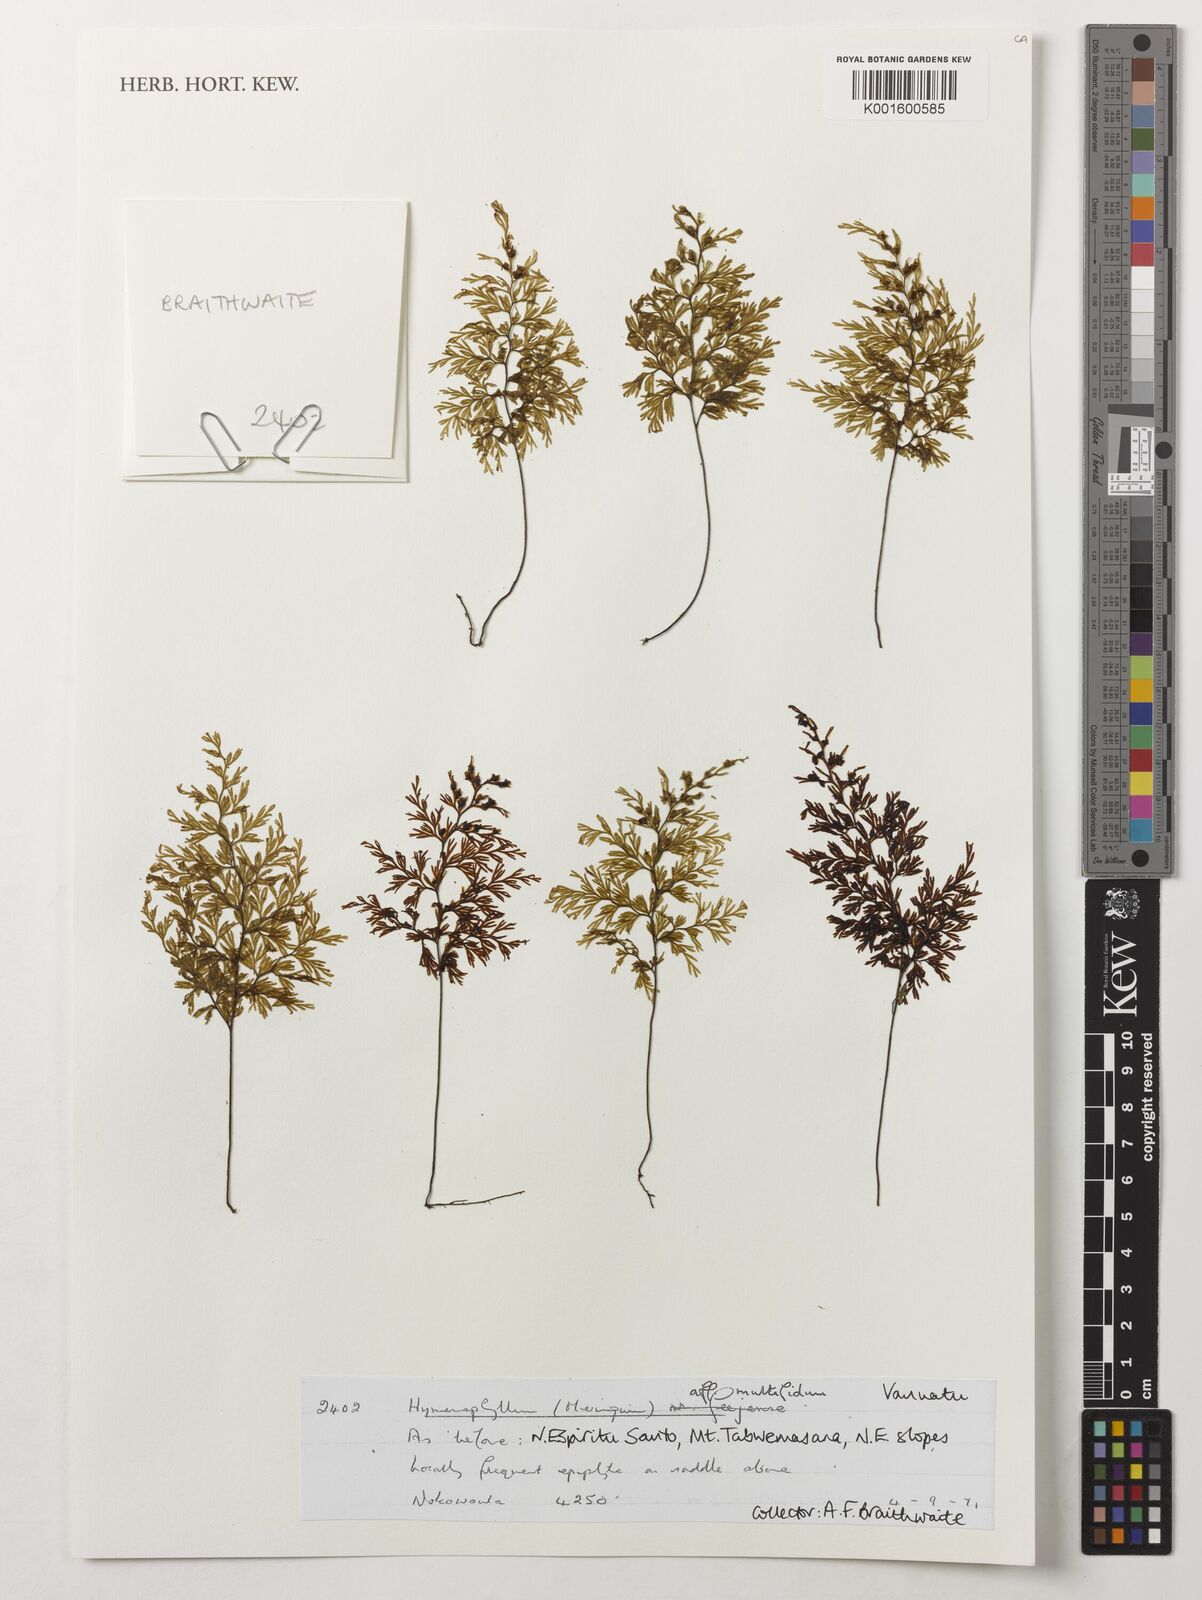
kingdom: Plantae
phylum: Tracheophyta
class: Polypodiopsida
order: Hymenophyllales
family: Hymenophyllaceae
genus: Hymenophyllum
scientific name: Hymenophyllum multifidum
